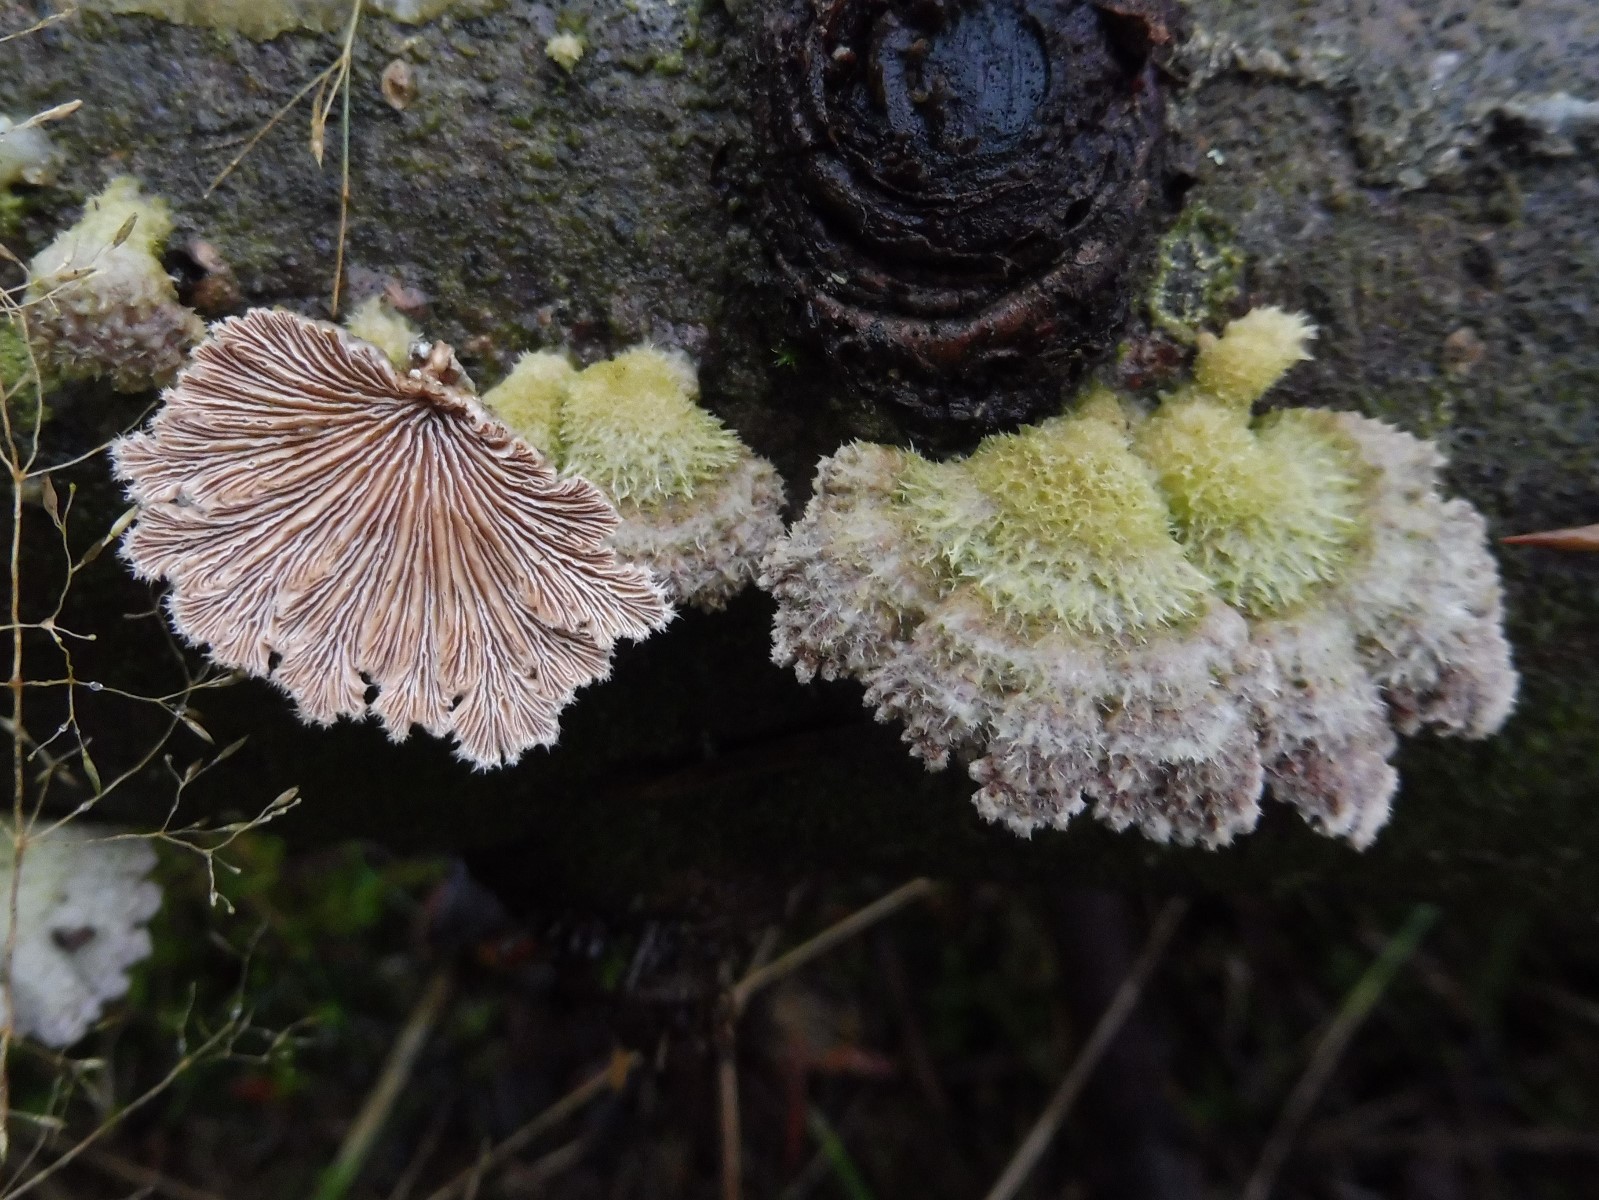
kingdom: Fungi
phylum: Basidiomycota
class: Agaricomycetes
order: Agaricales
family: Schizophyllaceae
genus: Schizophyllum
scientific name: Schizophyllum commune
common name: kløvblad
